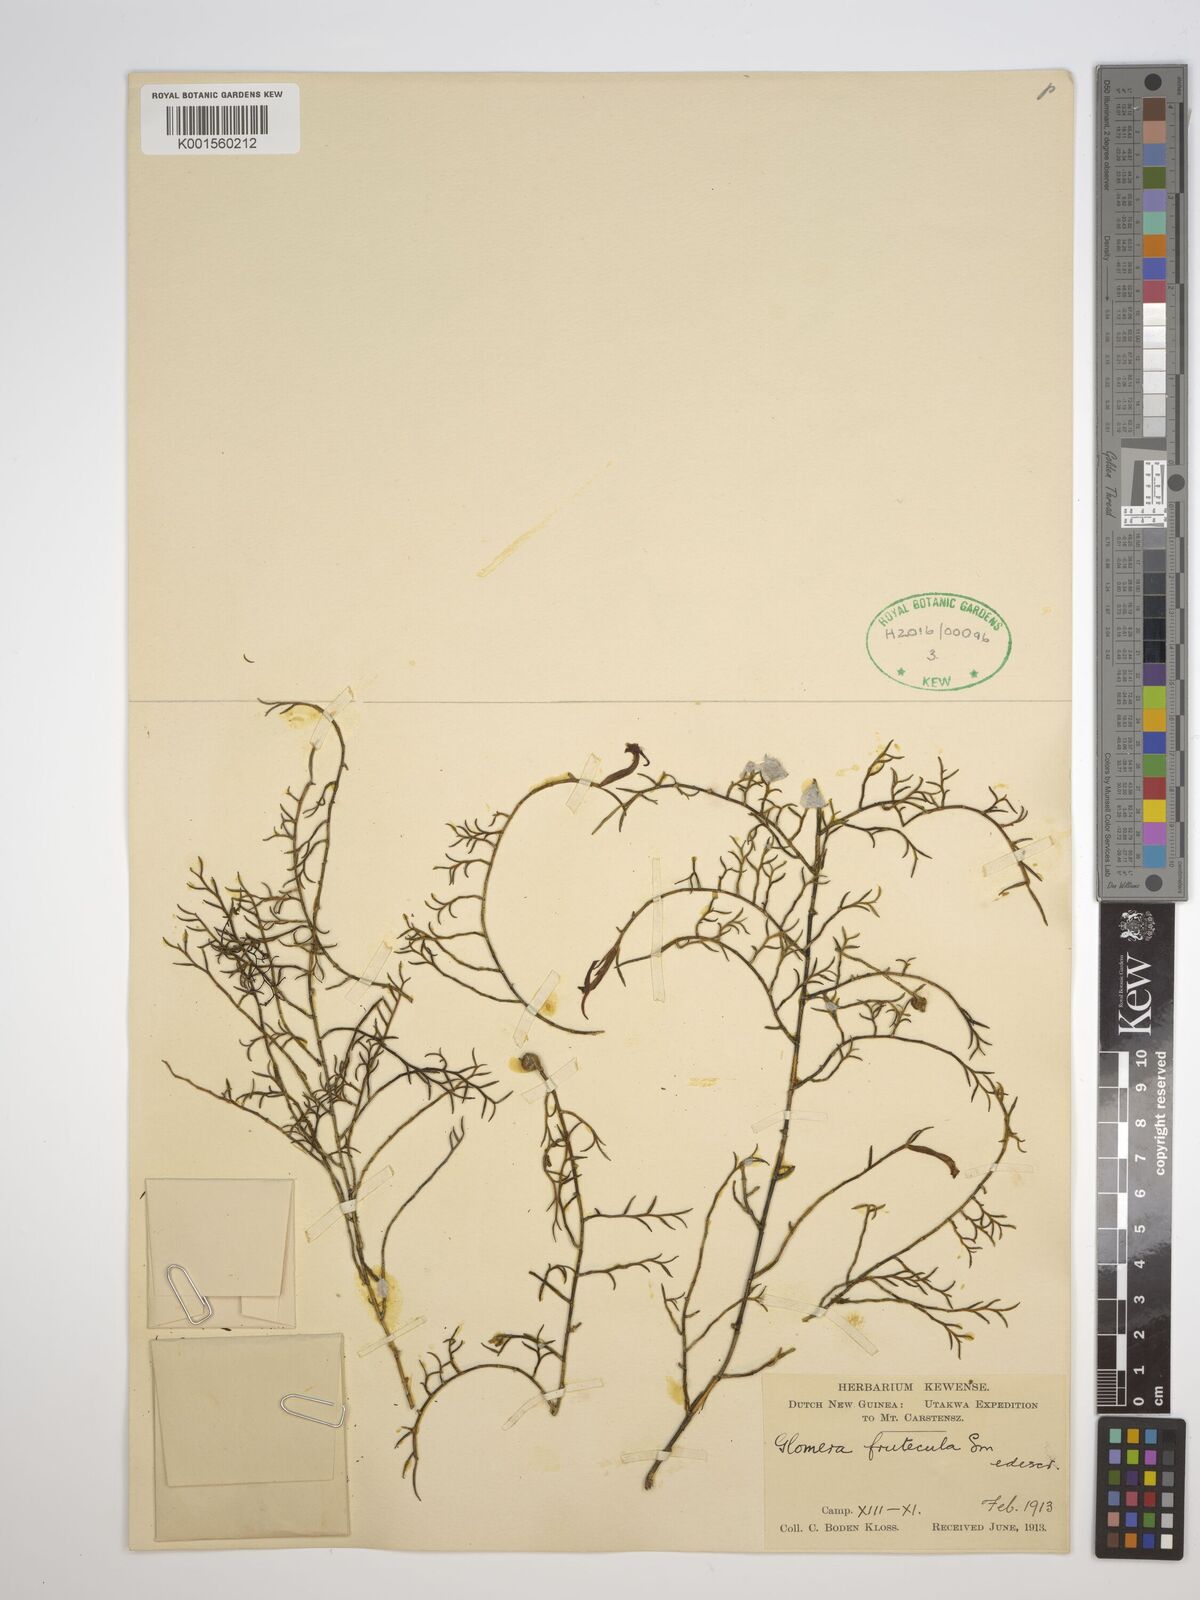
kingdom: Plantae
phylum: Tracheophyta
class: Liliopsida
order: Asparagales
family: Orchidaceae
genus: Glomera
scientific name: Glomera fruticula
